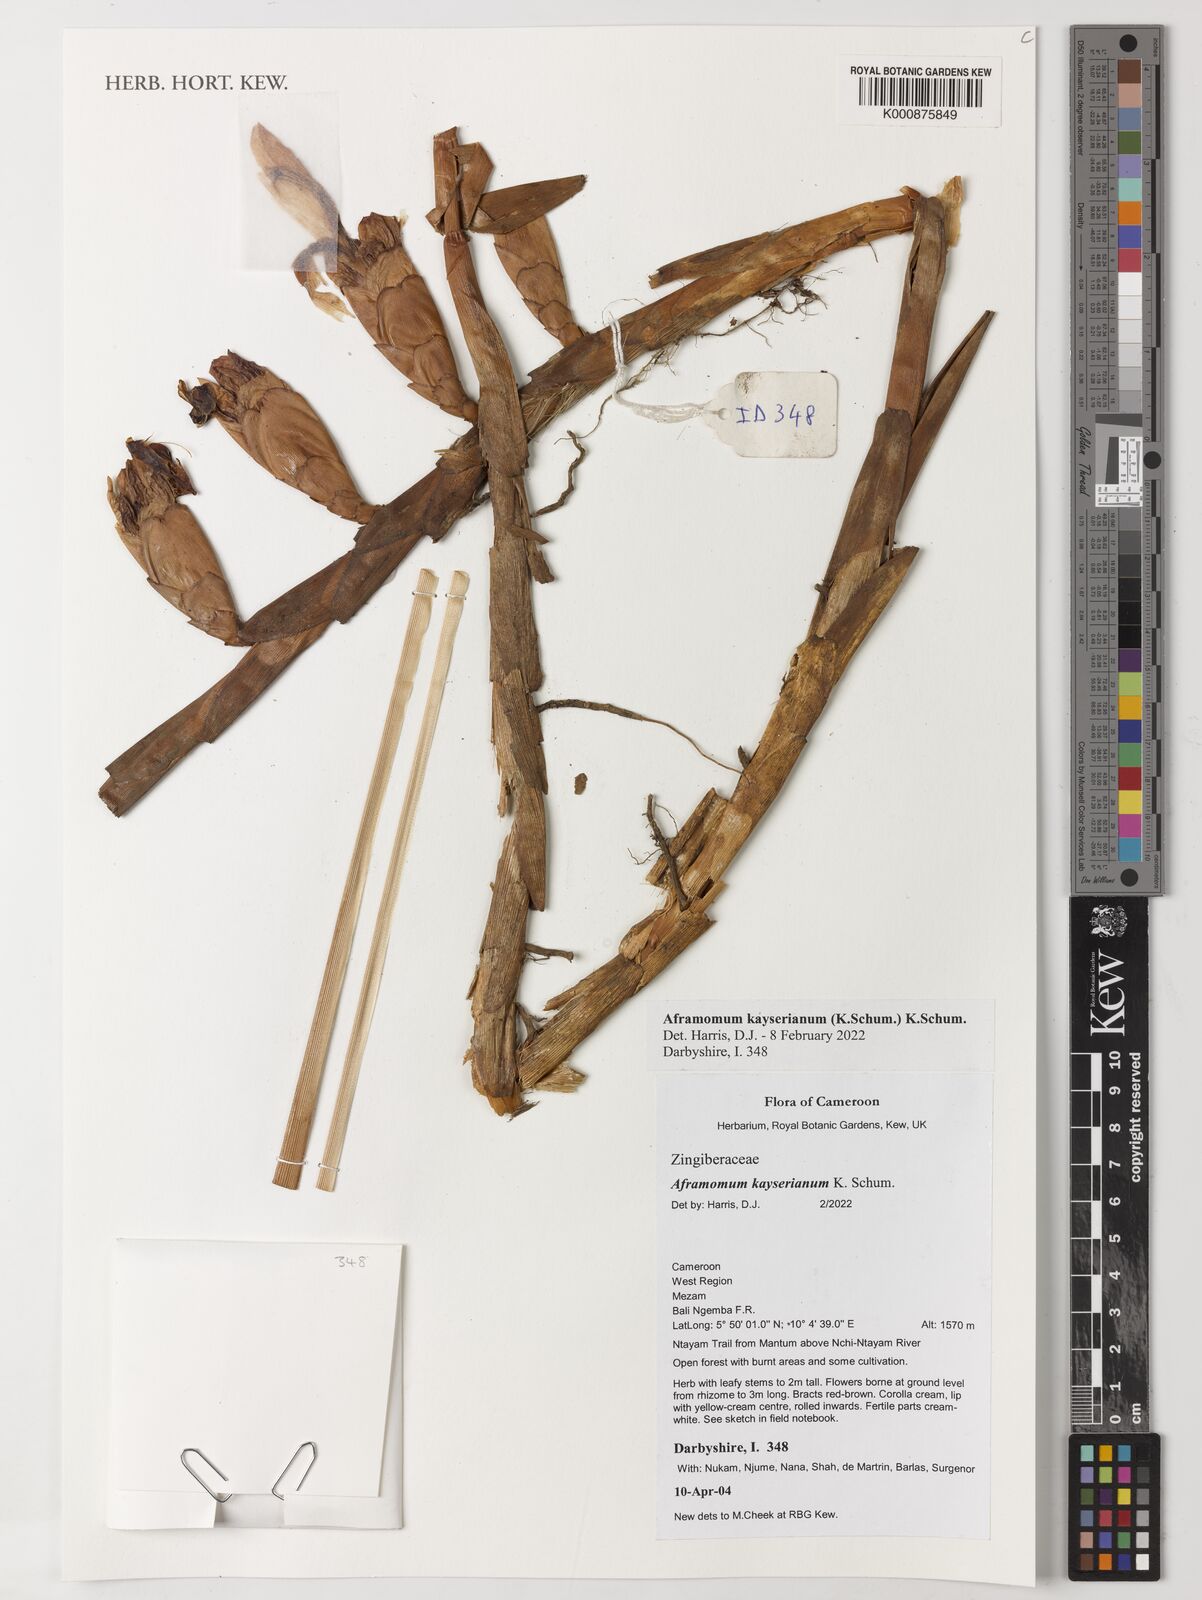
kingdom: Plantae
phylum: Tracheophyta
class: Liliopsida
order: Zingiberales
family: Zingiberaceae
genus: Aframomum
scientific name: Aframomum kayserianum
